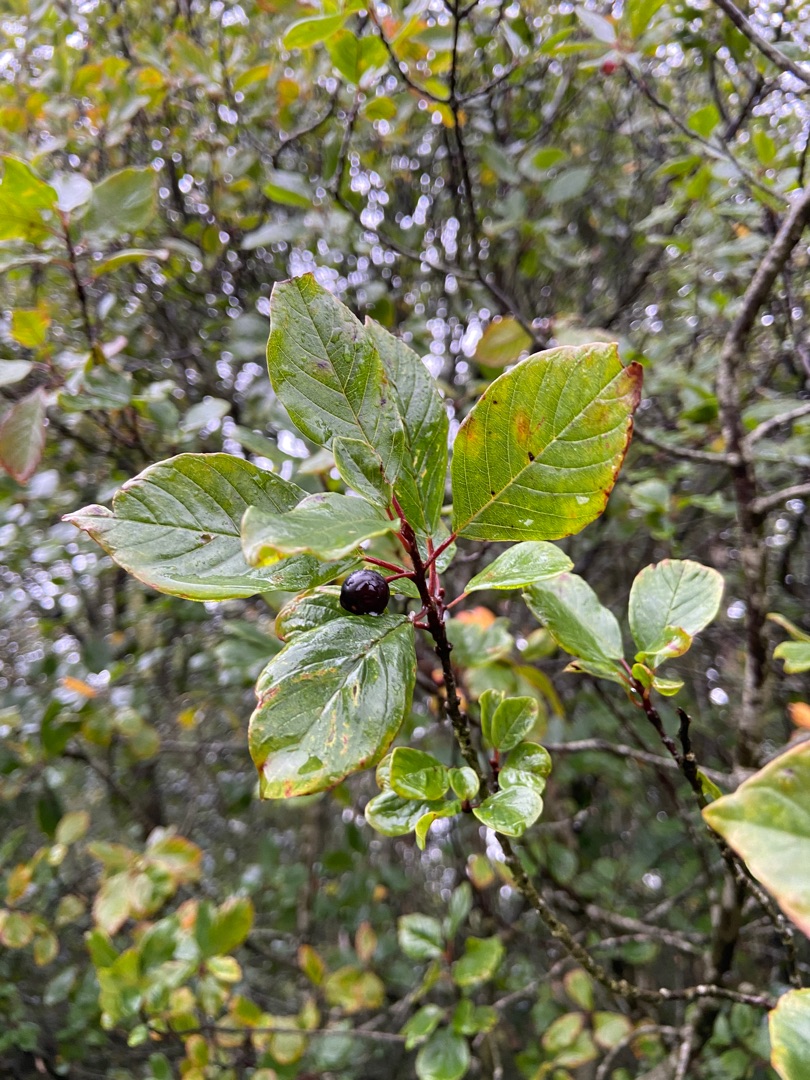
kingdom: Plantae
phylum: Tracheophyta
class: Magnoliopsida
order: Rosales
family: Rhamnaceae
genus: Frangula
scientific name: Frangula alnus
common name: Tørst
